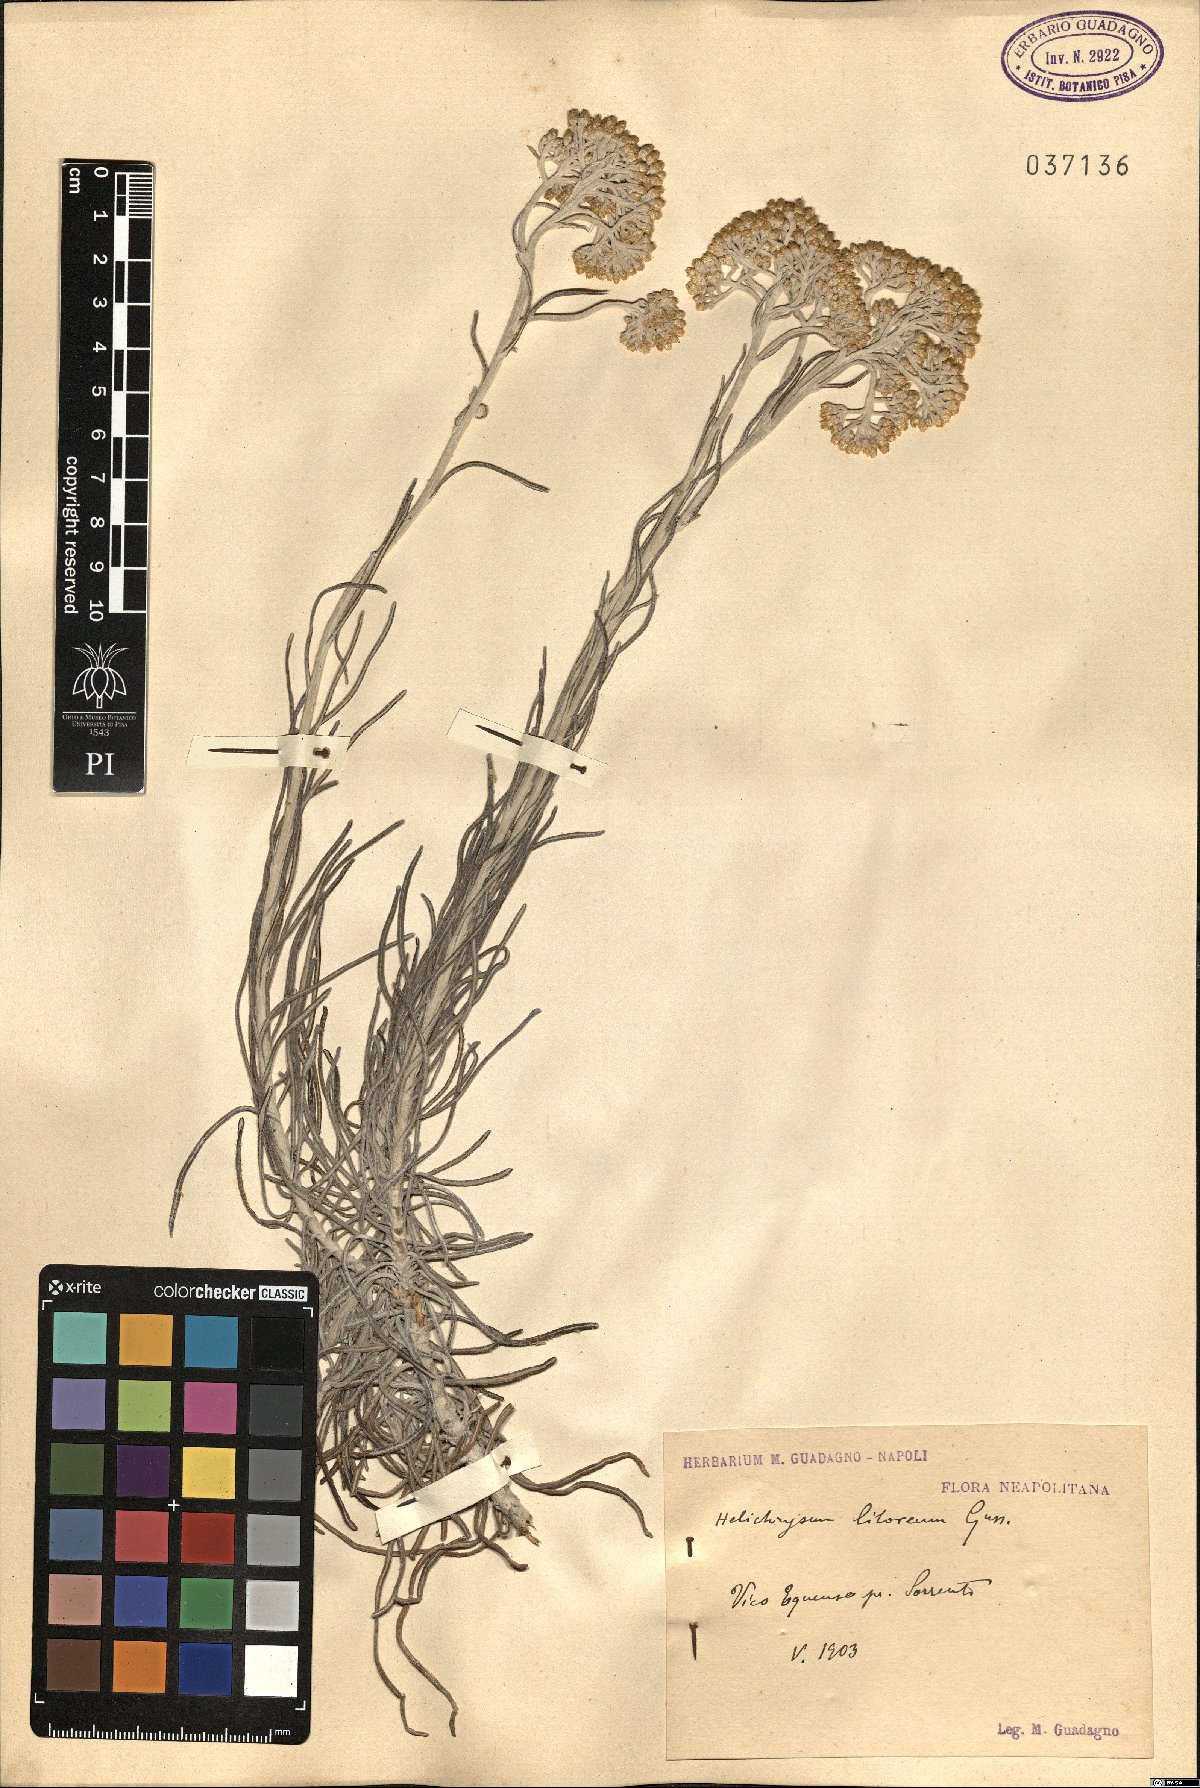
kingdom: Plantae
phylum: Tracheophyta
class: Magnoliopsida
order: Asterales
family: Asteraceae
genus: Helichrysum
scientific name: Helichrysum litoreum
